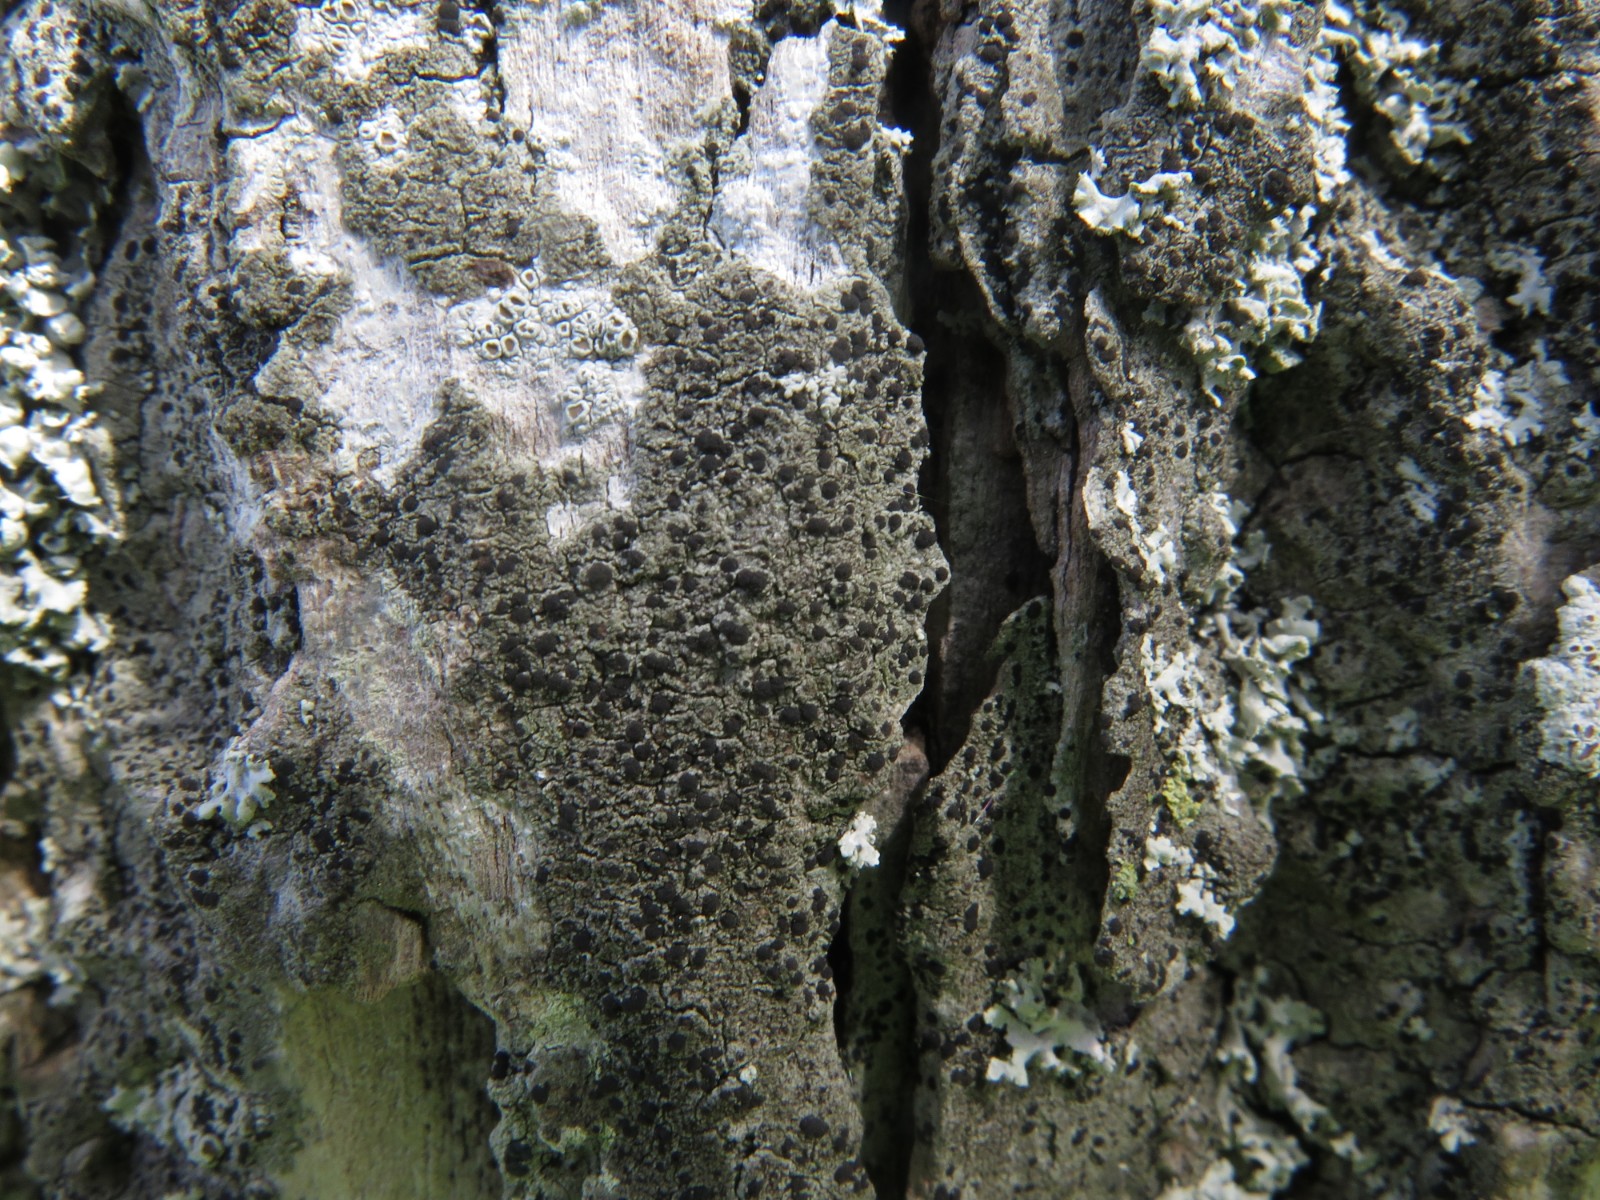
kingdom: Fungi
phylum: Ascomycota
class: Lecanoromycetes
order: Lecanorales
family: Lecanoraceae
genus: Lecidella
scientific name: Lecidella elaeochroma
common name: grågrøn skivelav
